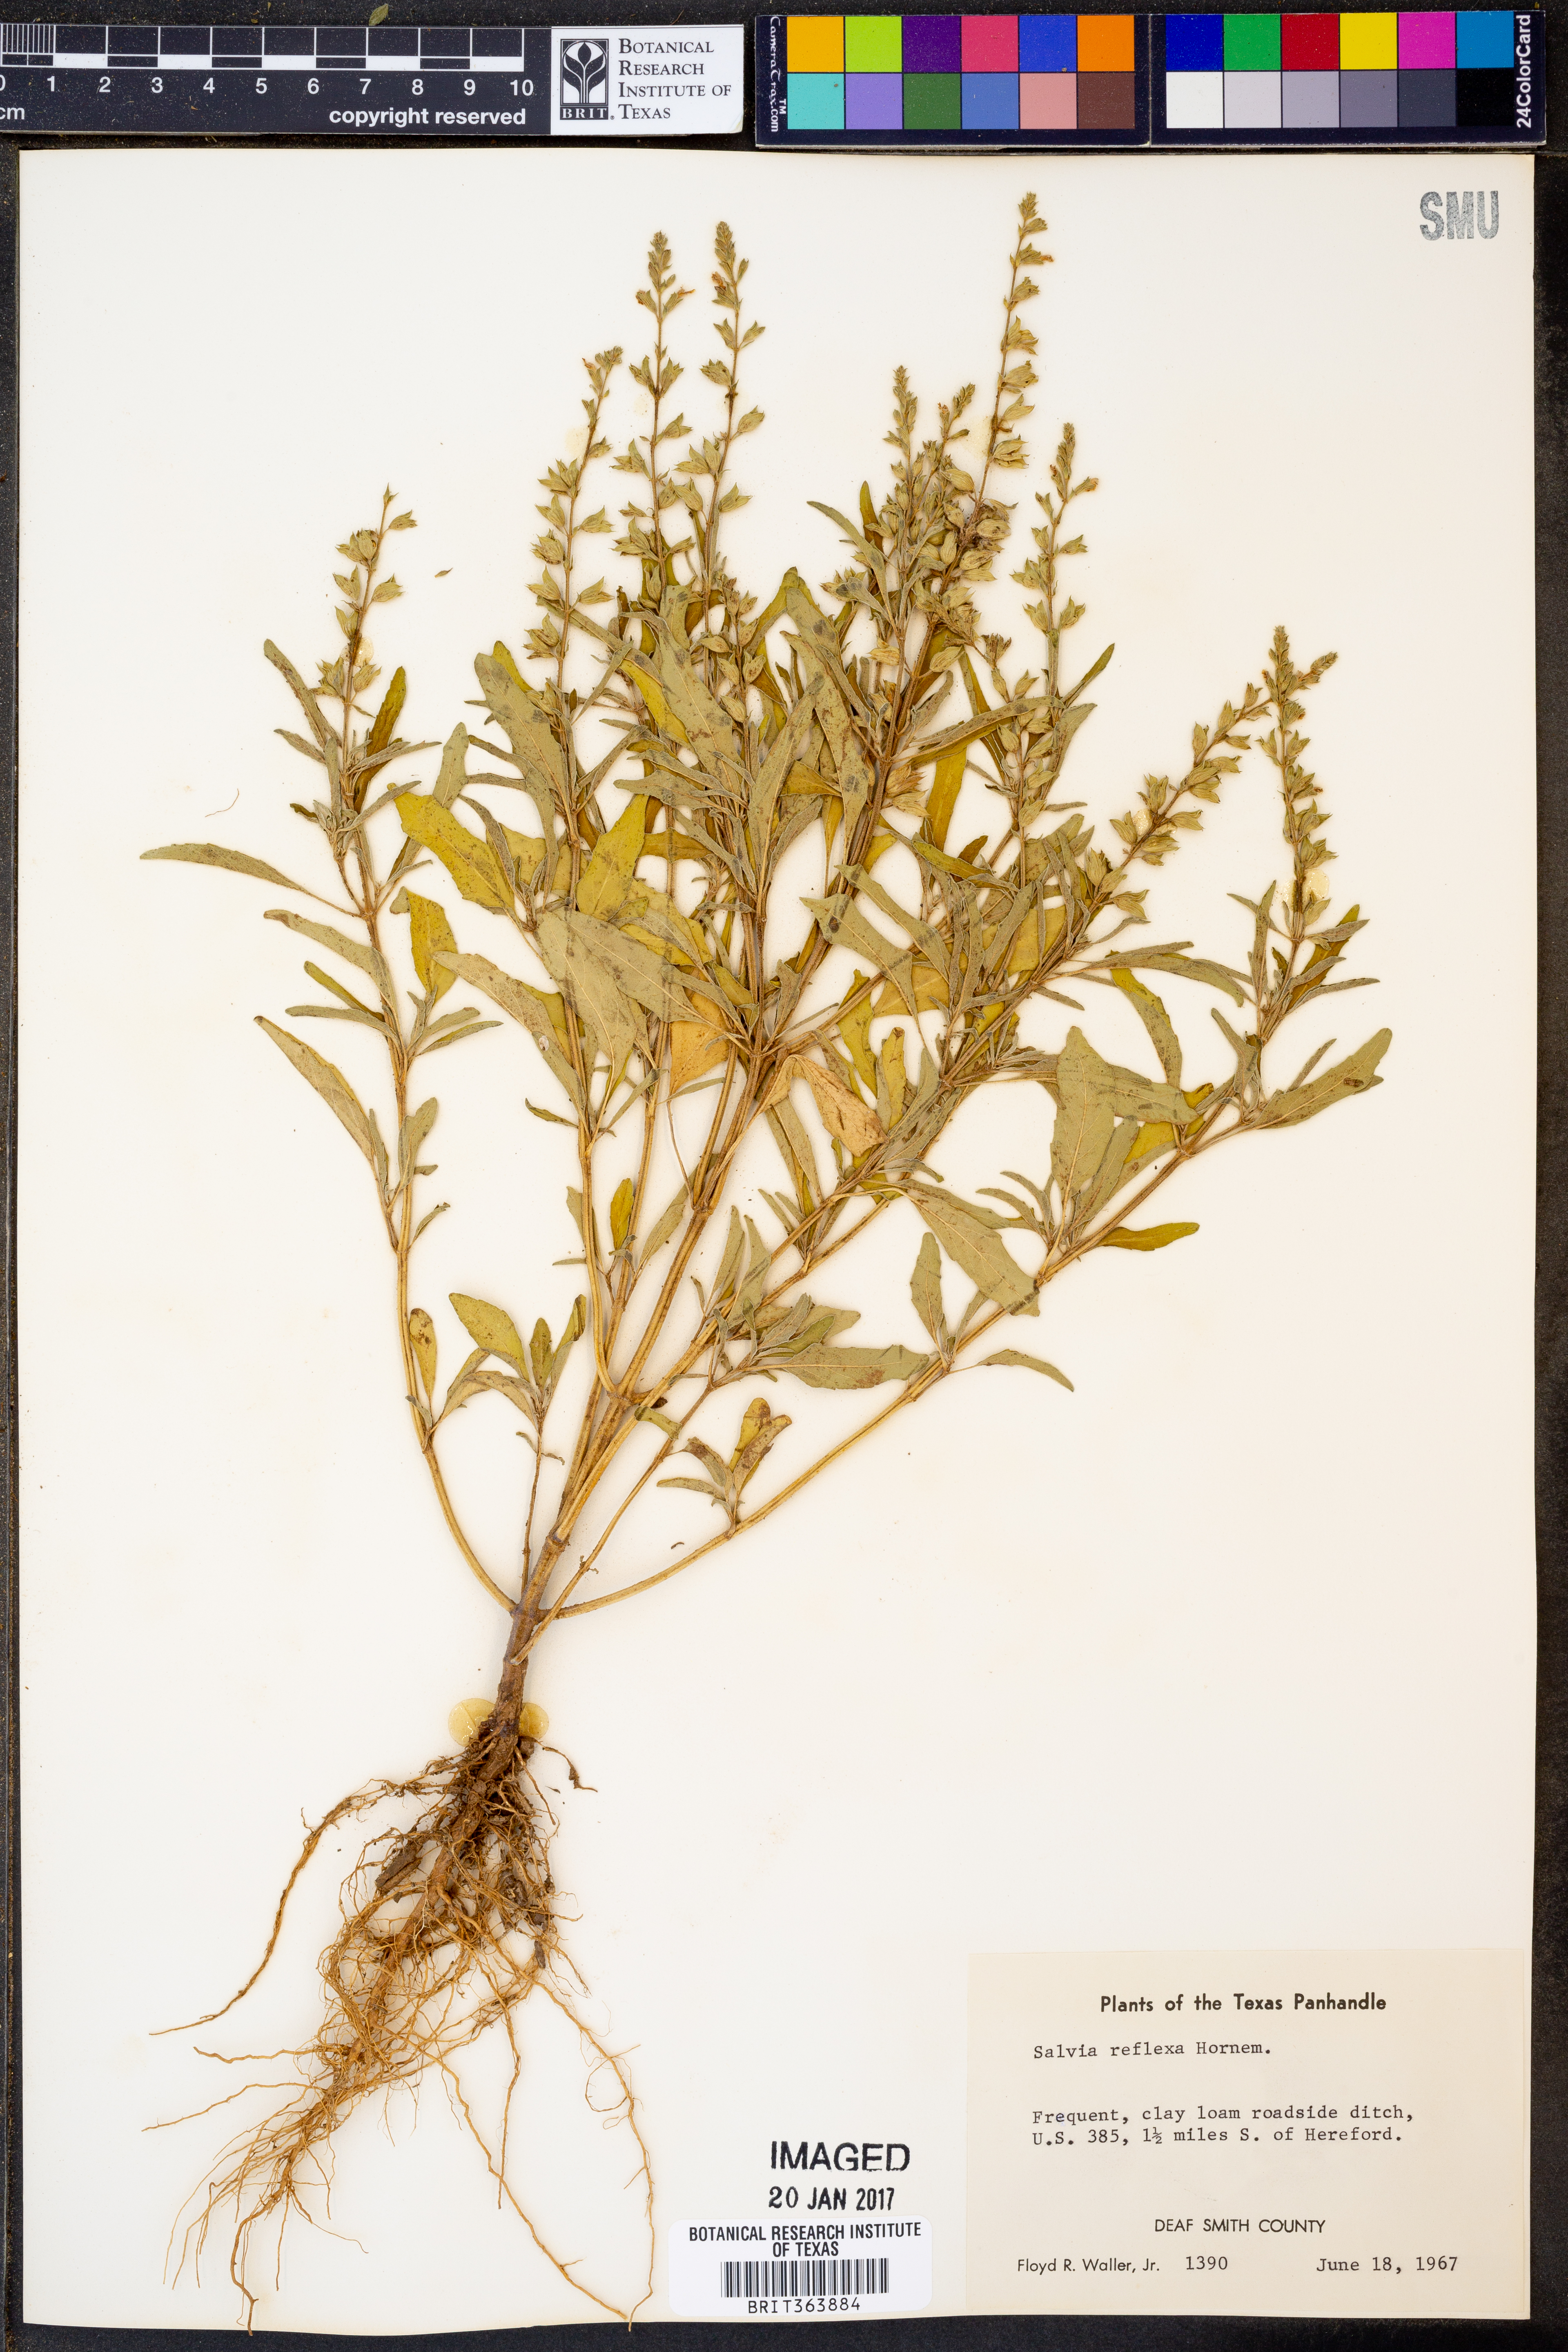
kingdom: Plantae
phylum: Tracheophyta
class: Magnoliopsida
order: Lamiales
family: Lamiaceae
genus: Salvia
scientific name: Salvia reflexa
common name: Mintweed
